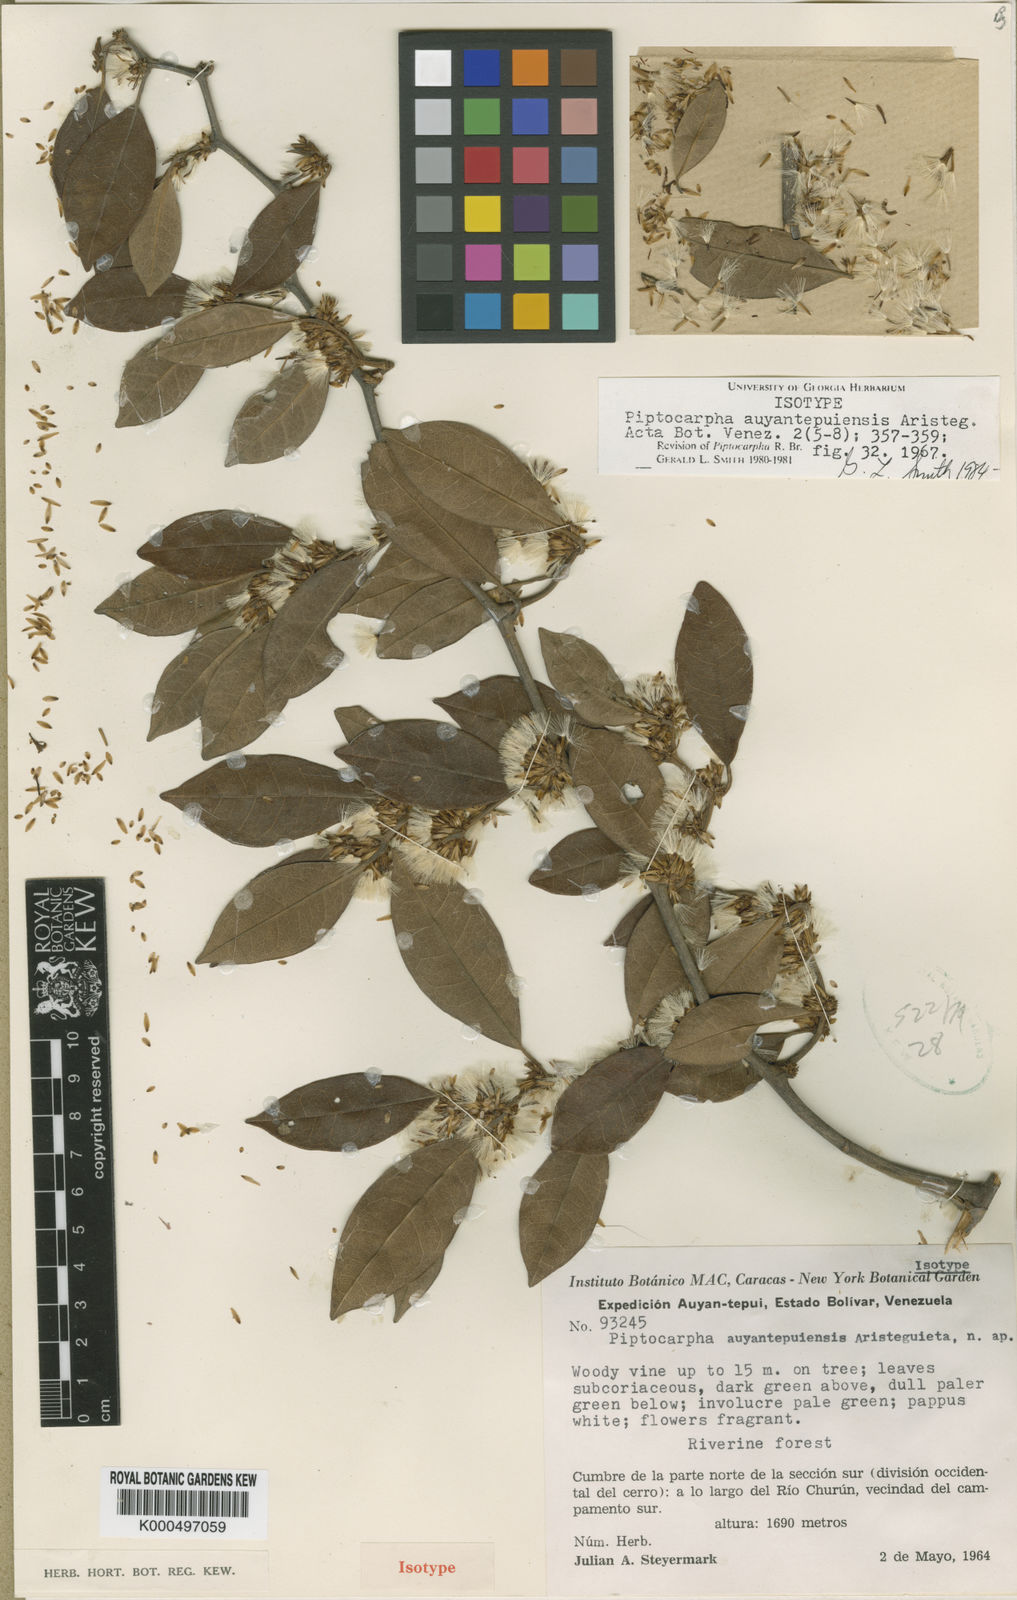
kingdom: Plantae
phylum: Tracheophyta
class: Magnoliopsida
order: Asterales
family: Asteraceae
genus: Piptocarpha
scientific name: Piptocarpha auyantepuiensis
